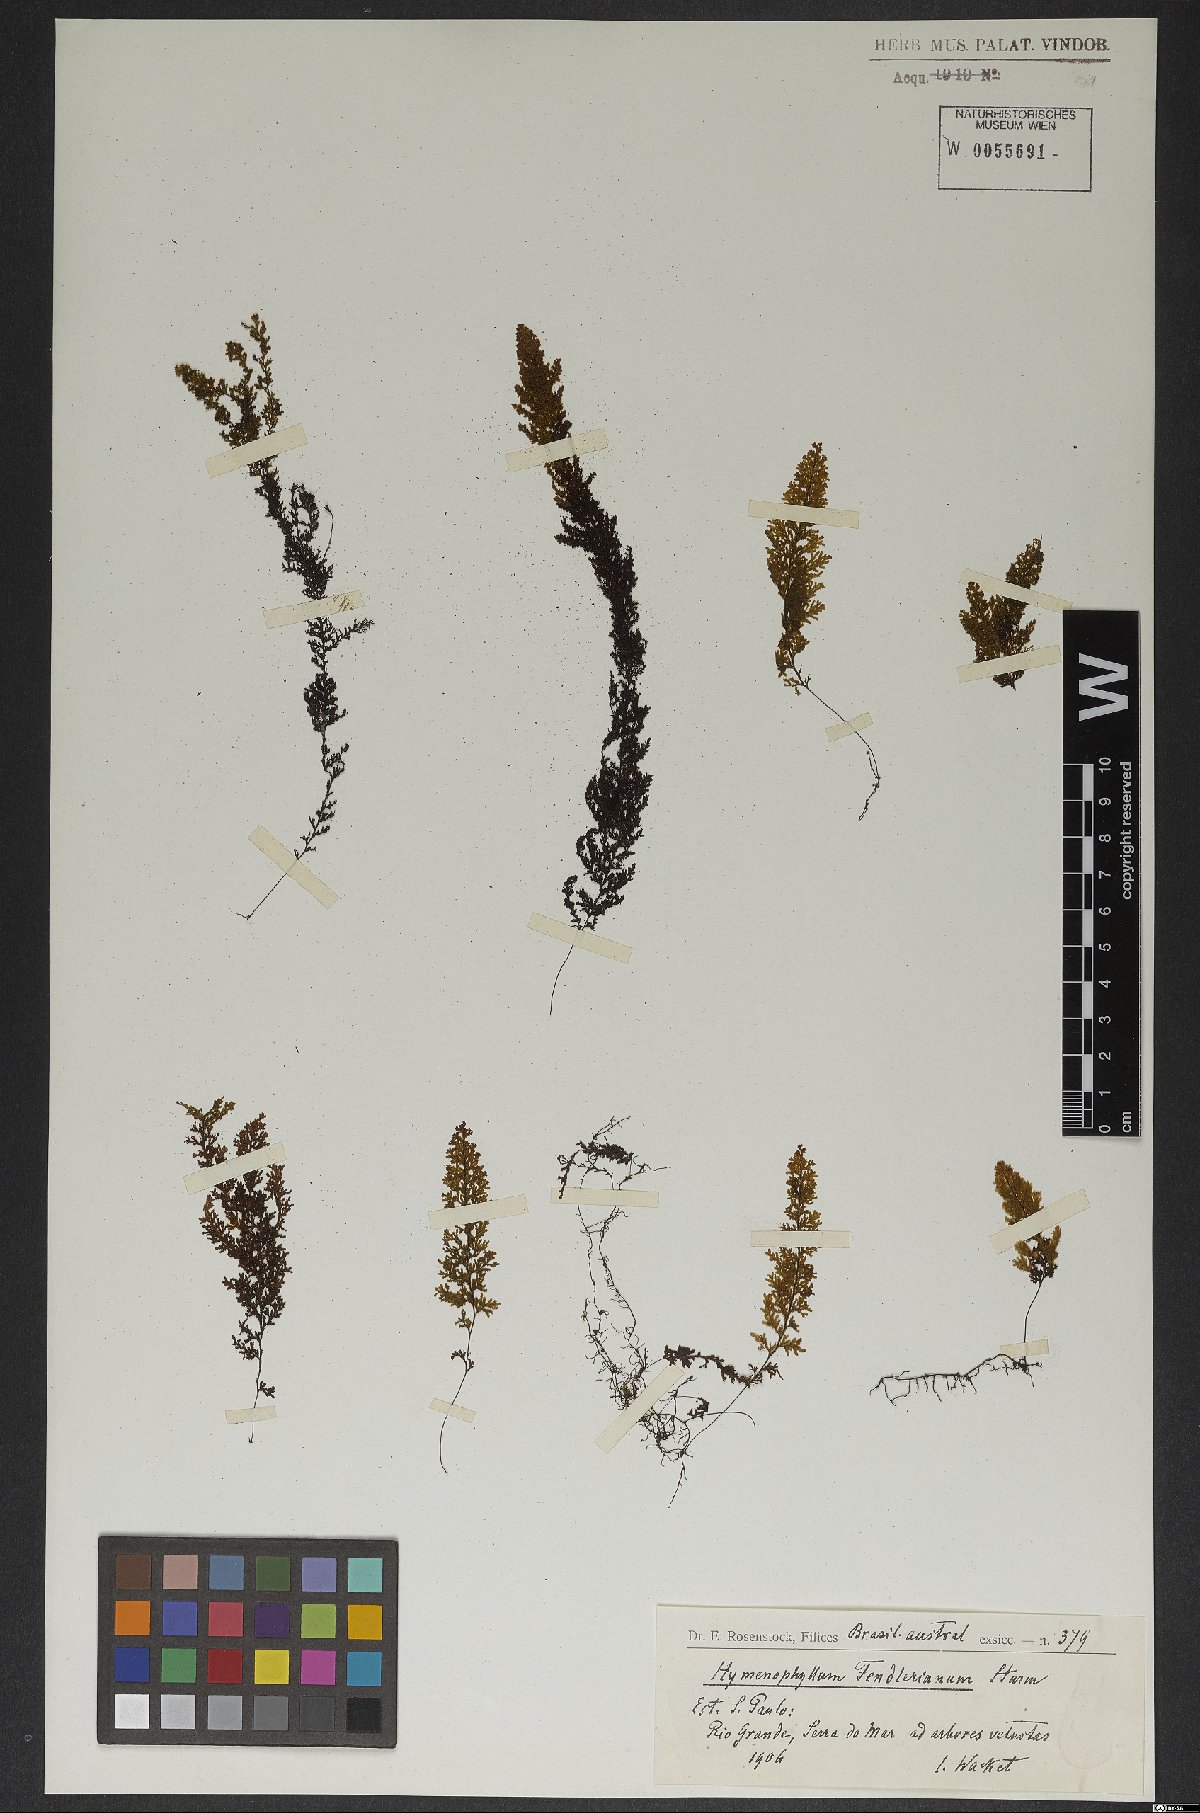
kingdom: Plantae
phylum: Tracheophyta
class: Polypodiopsida
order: Hymenophyllales
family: Hymenophyllaceae
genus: Hymenophyllum
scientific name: Hymenophyllum asplenioides
